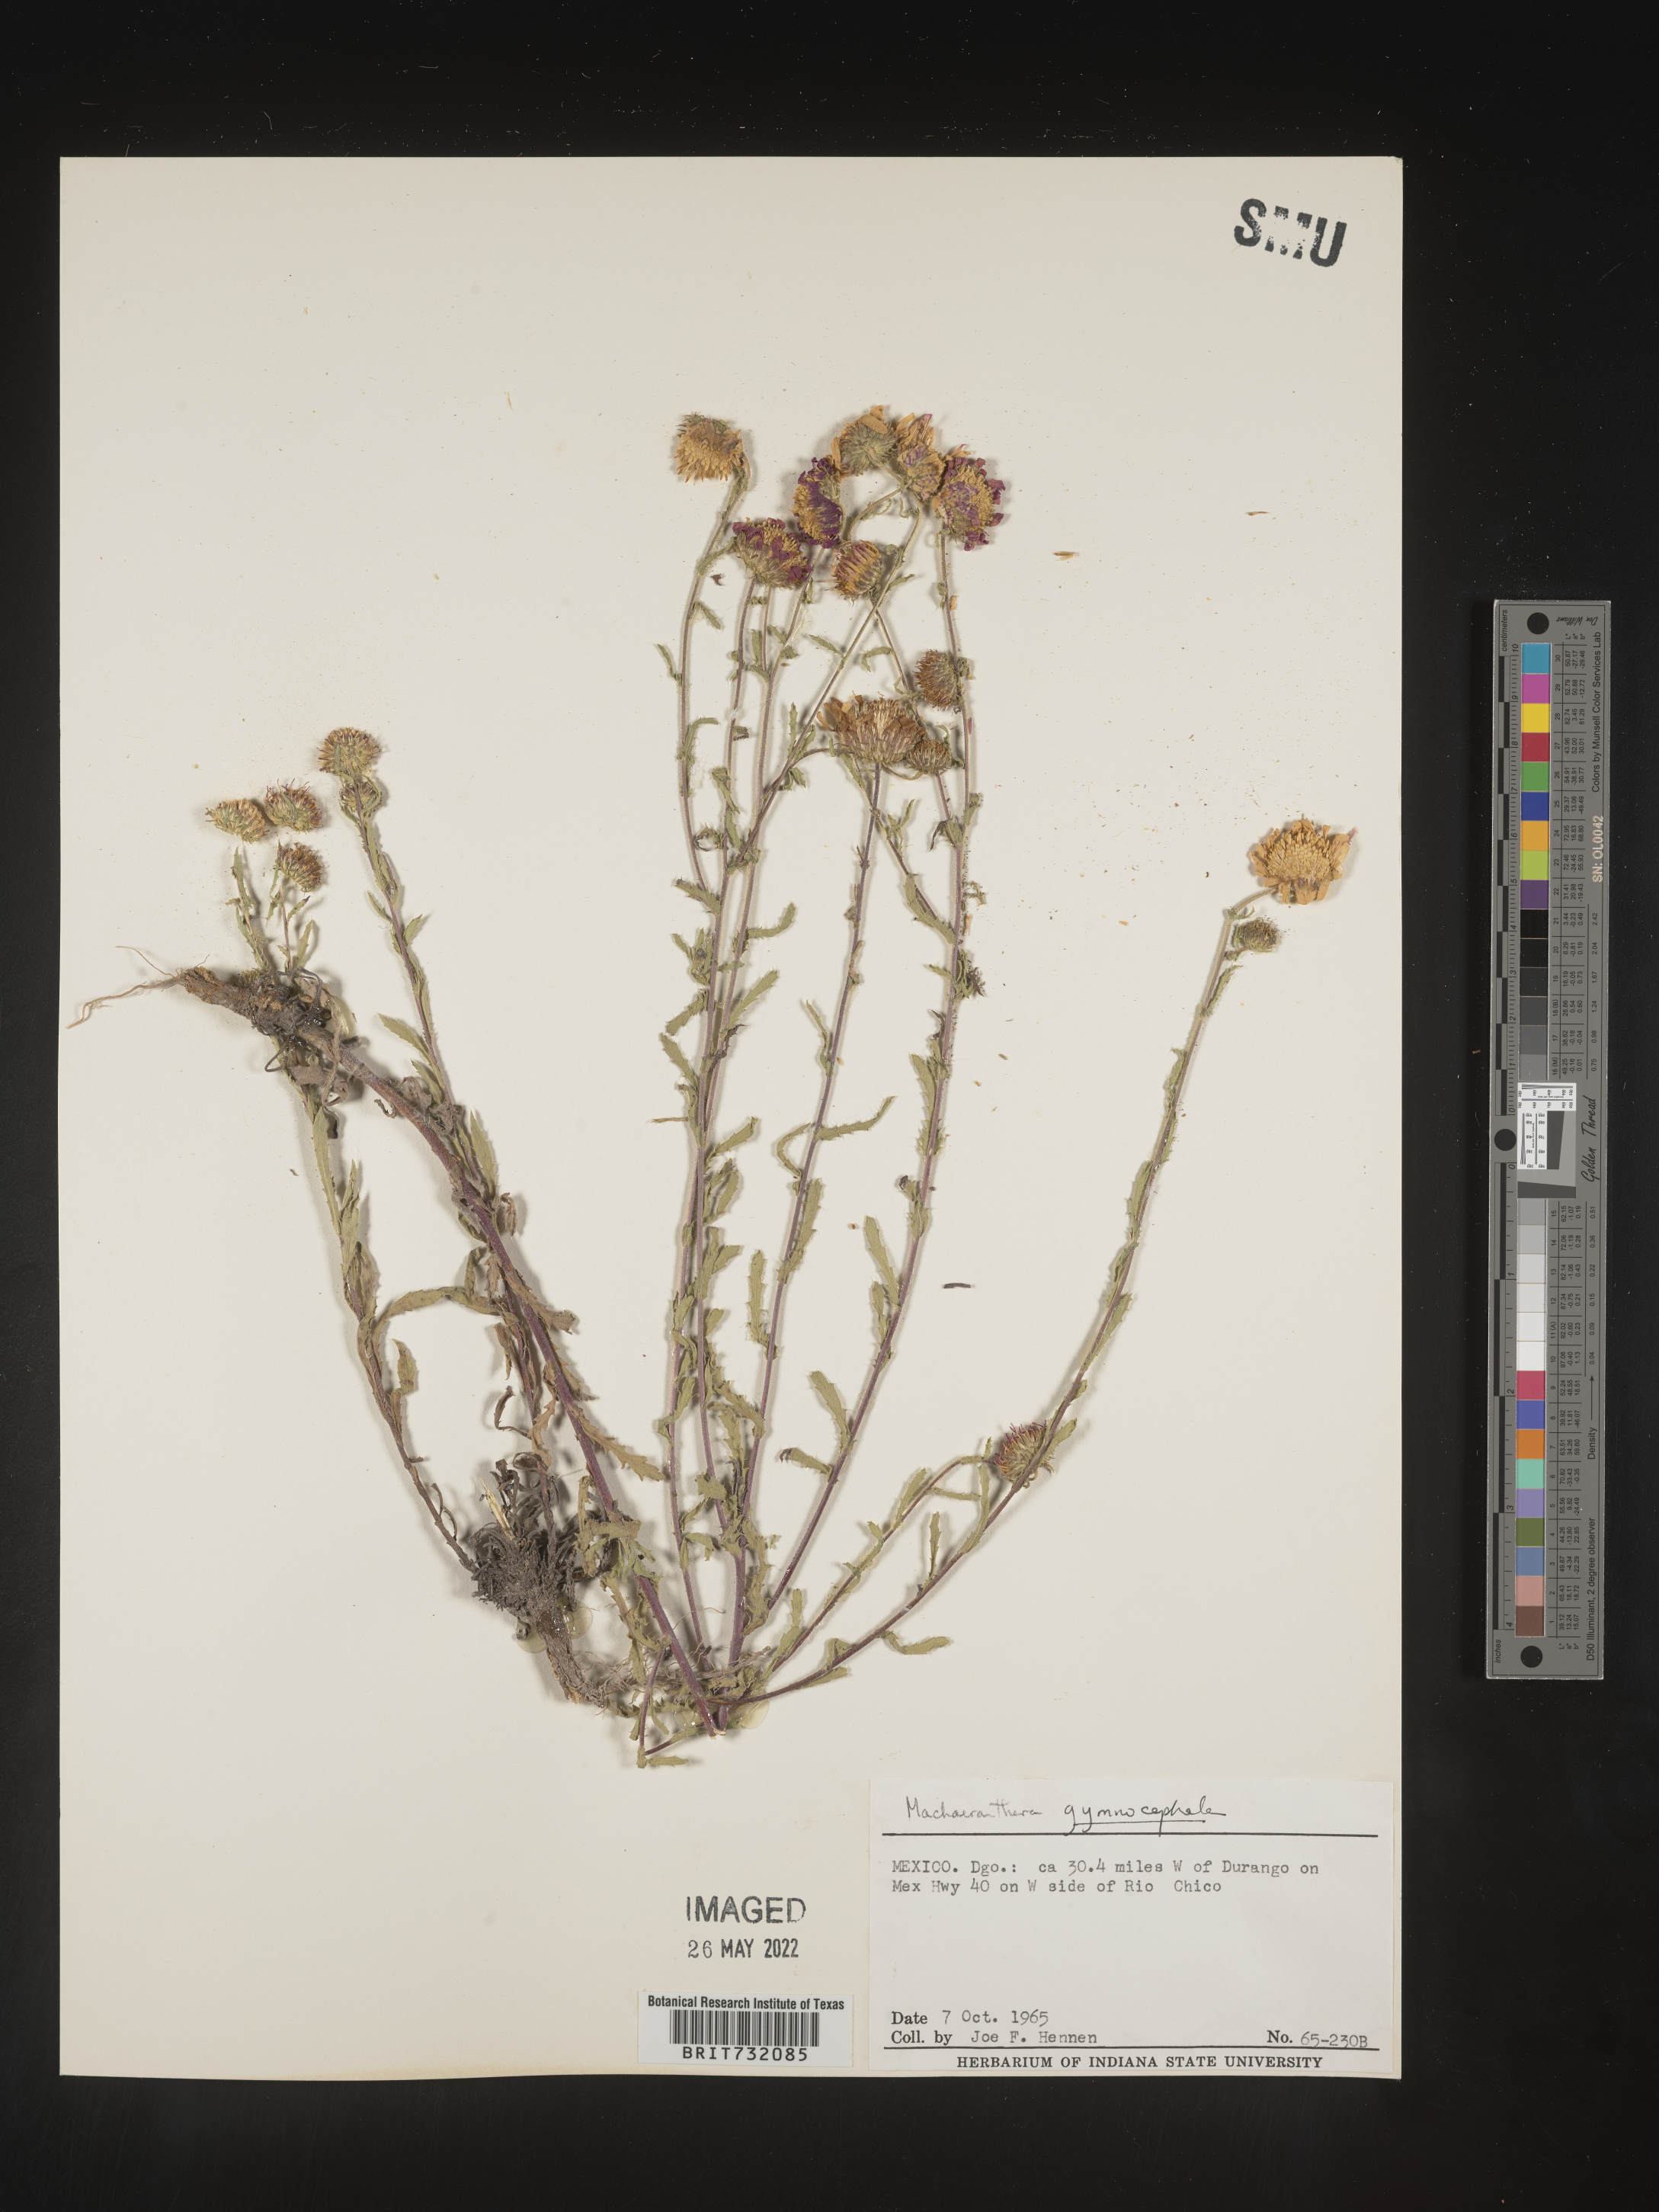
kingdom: Plantae
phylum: Tracheophyta
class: Magnoliopsida
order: Asterales
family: Asteraceae
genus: Xanthisma
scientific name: Xanthisma blephariphyllum
